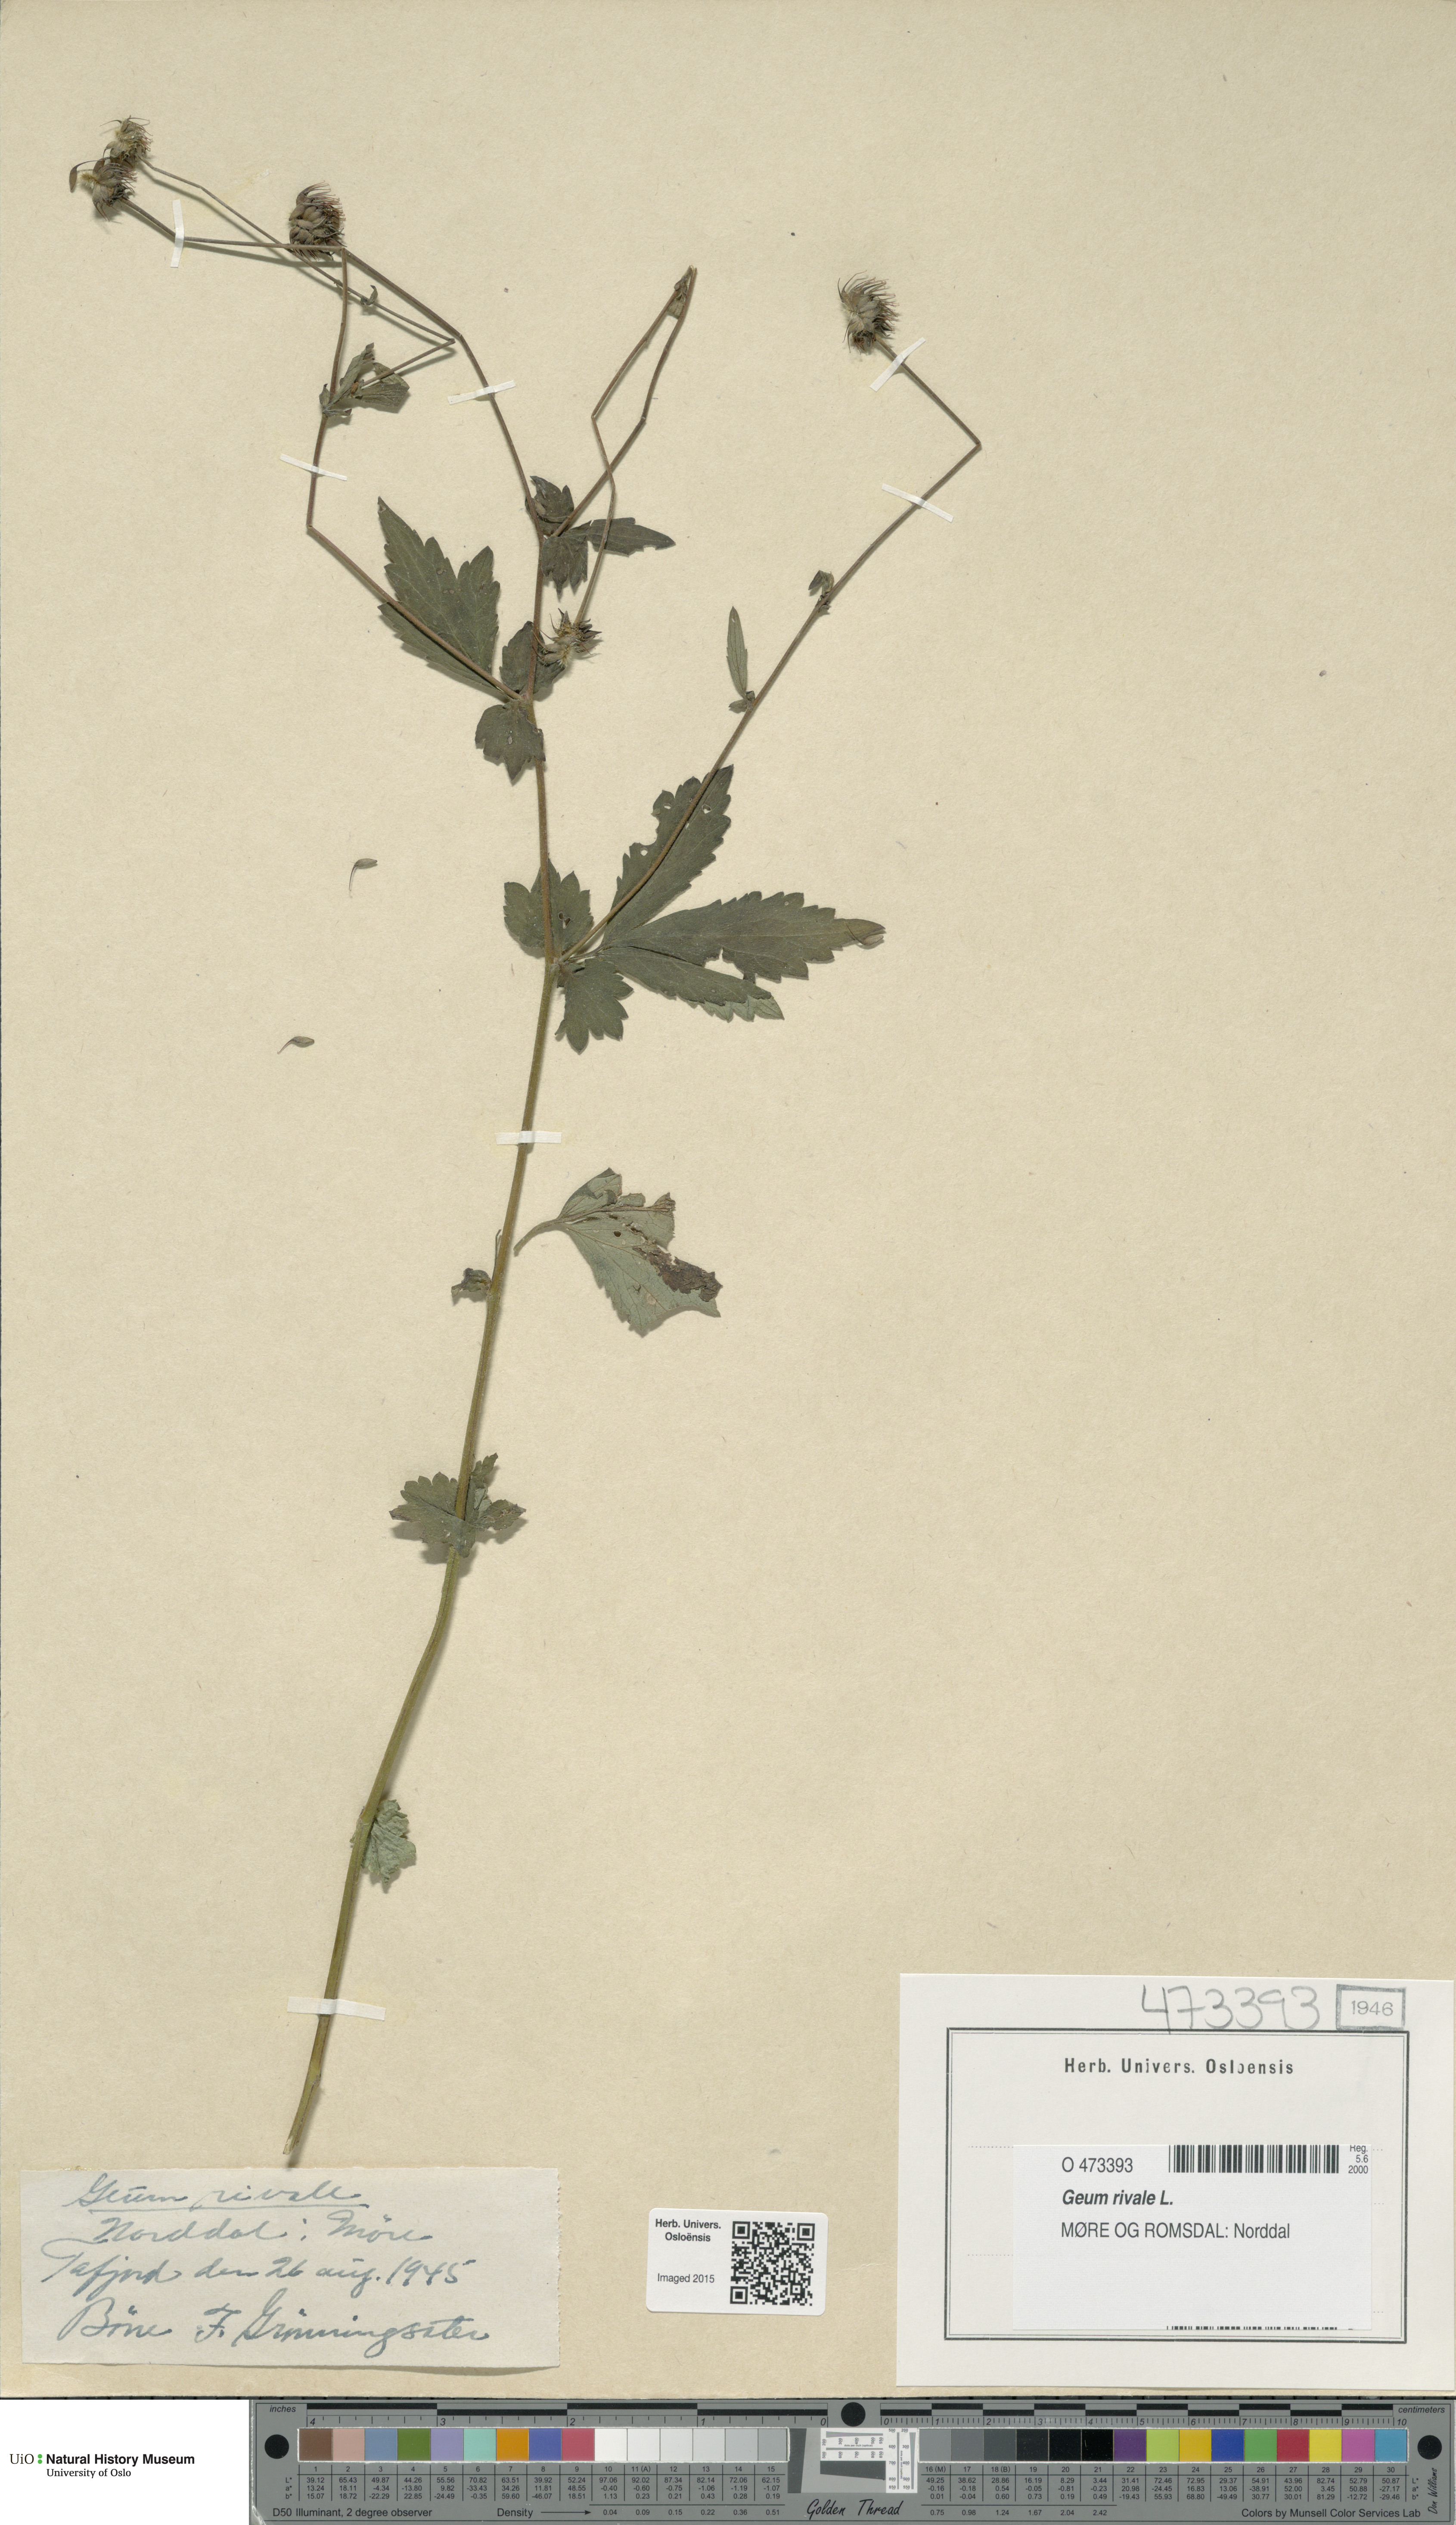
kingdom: Plantae
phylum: Tracheophyta
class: Magnoliopsida
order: Rosales
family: Rosaceae
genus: Geum
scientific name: Geum rivale
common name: Water avens
